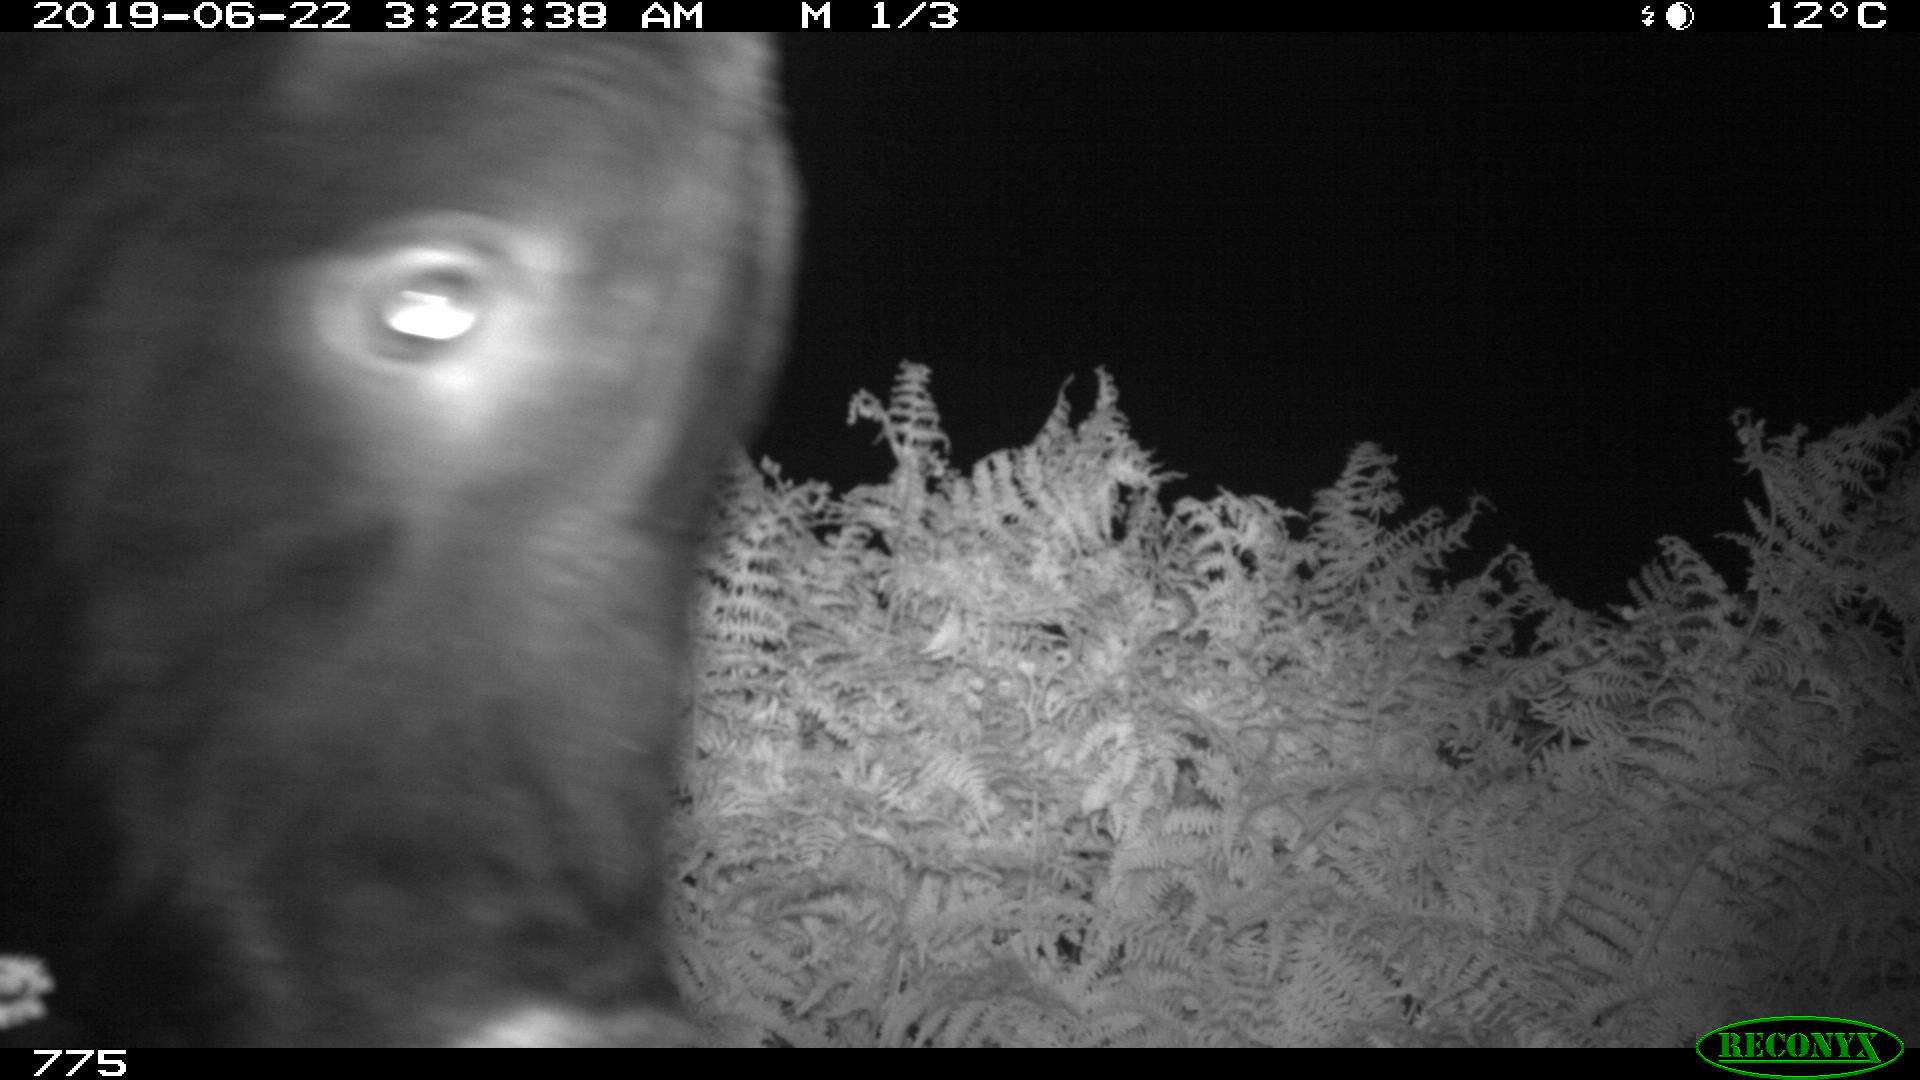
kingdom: Animalia
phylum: Chordata
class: Mammalia
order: Artiodactyla
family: Bovidae
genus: Bos
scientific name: Bos taurus
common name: Domesticated cattle
